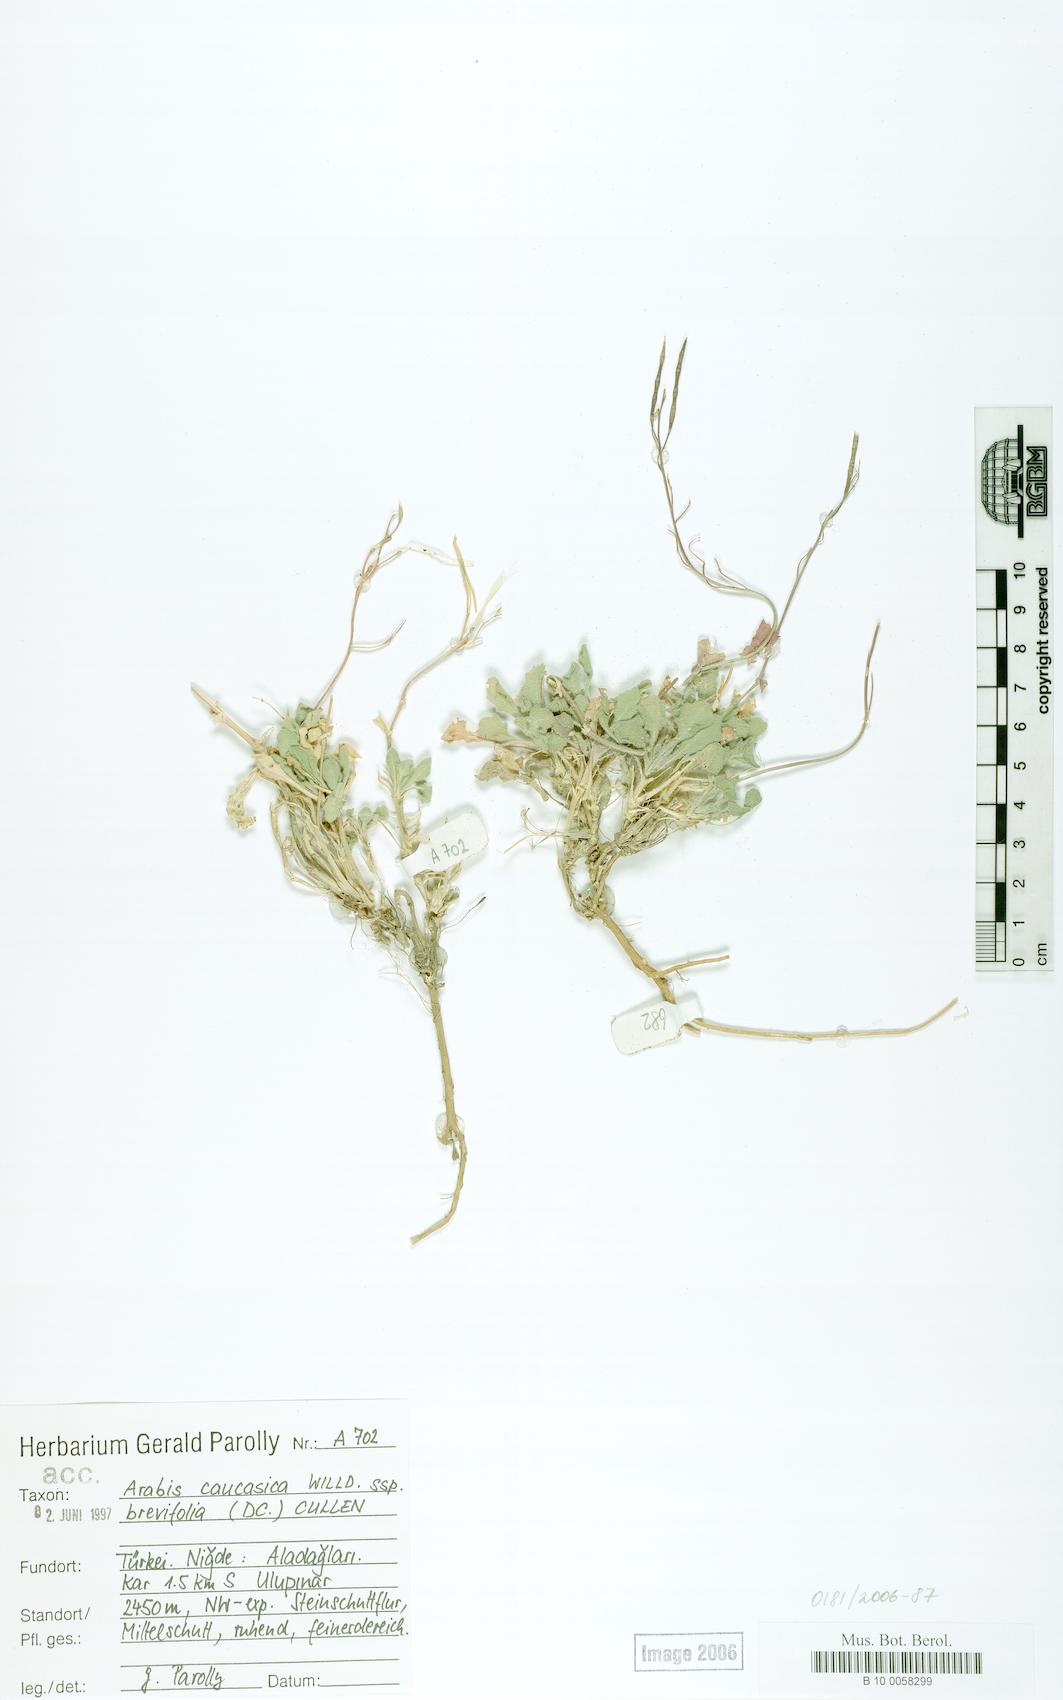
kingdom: Plantae
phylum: Tracheophyta
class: Magnoliopsida
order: Brassicales
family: Brassicaceae
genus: Arabis
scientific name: Arabis caucasica
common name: Gray rockcress
